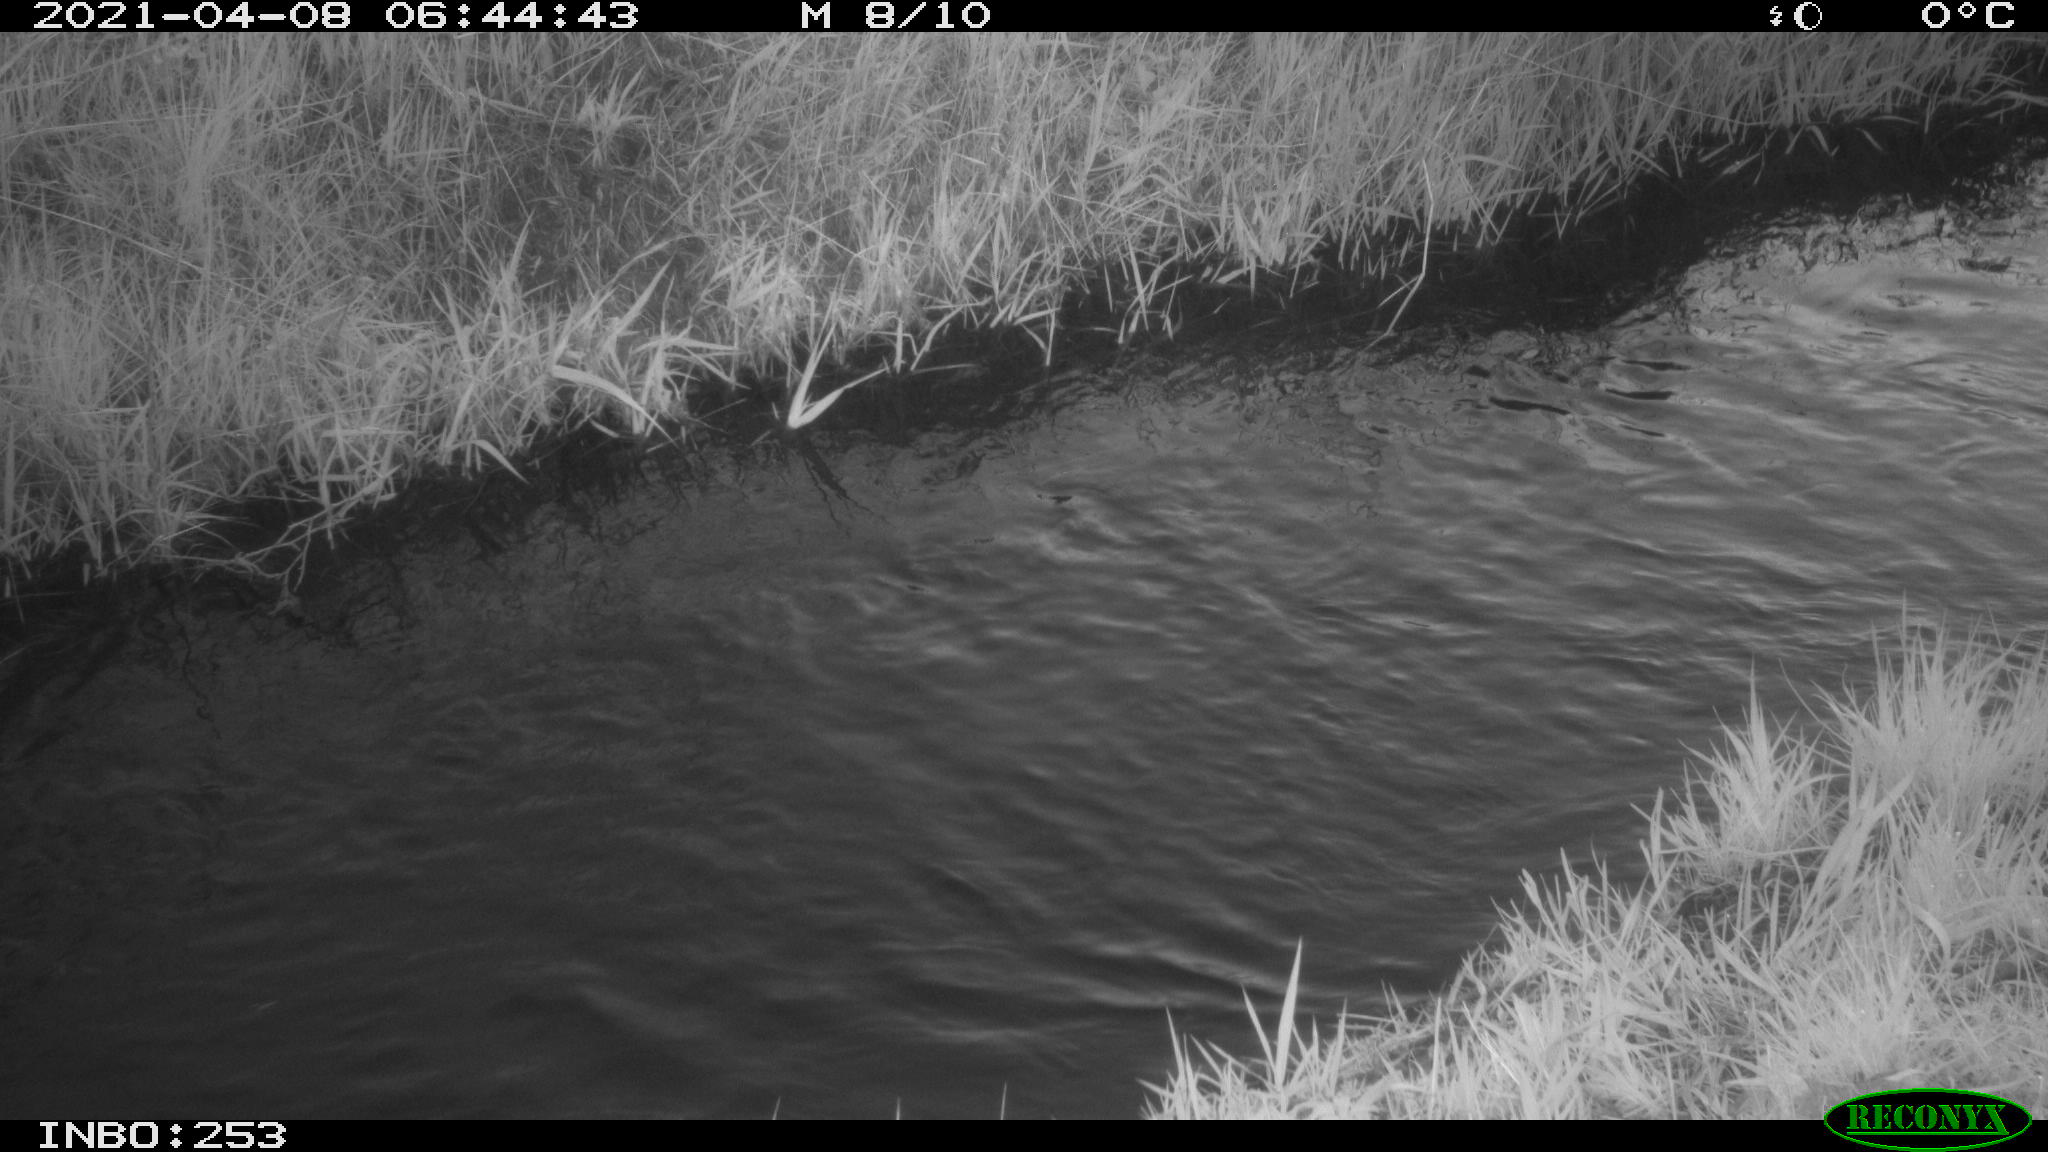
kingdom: Animalia
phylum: Chordata
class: Aves
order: Anseriformes
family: Anatidae
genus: Anas
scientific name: Anas platyrhynchos
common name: Mallard
